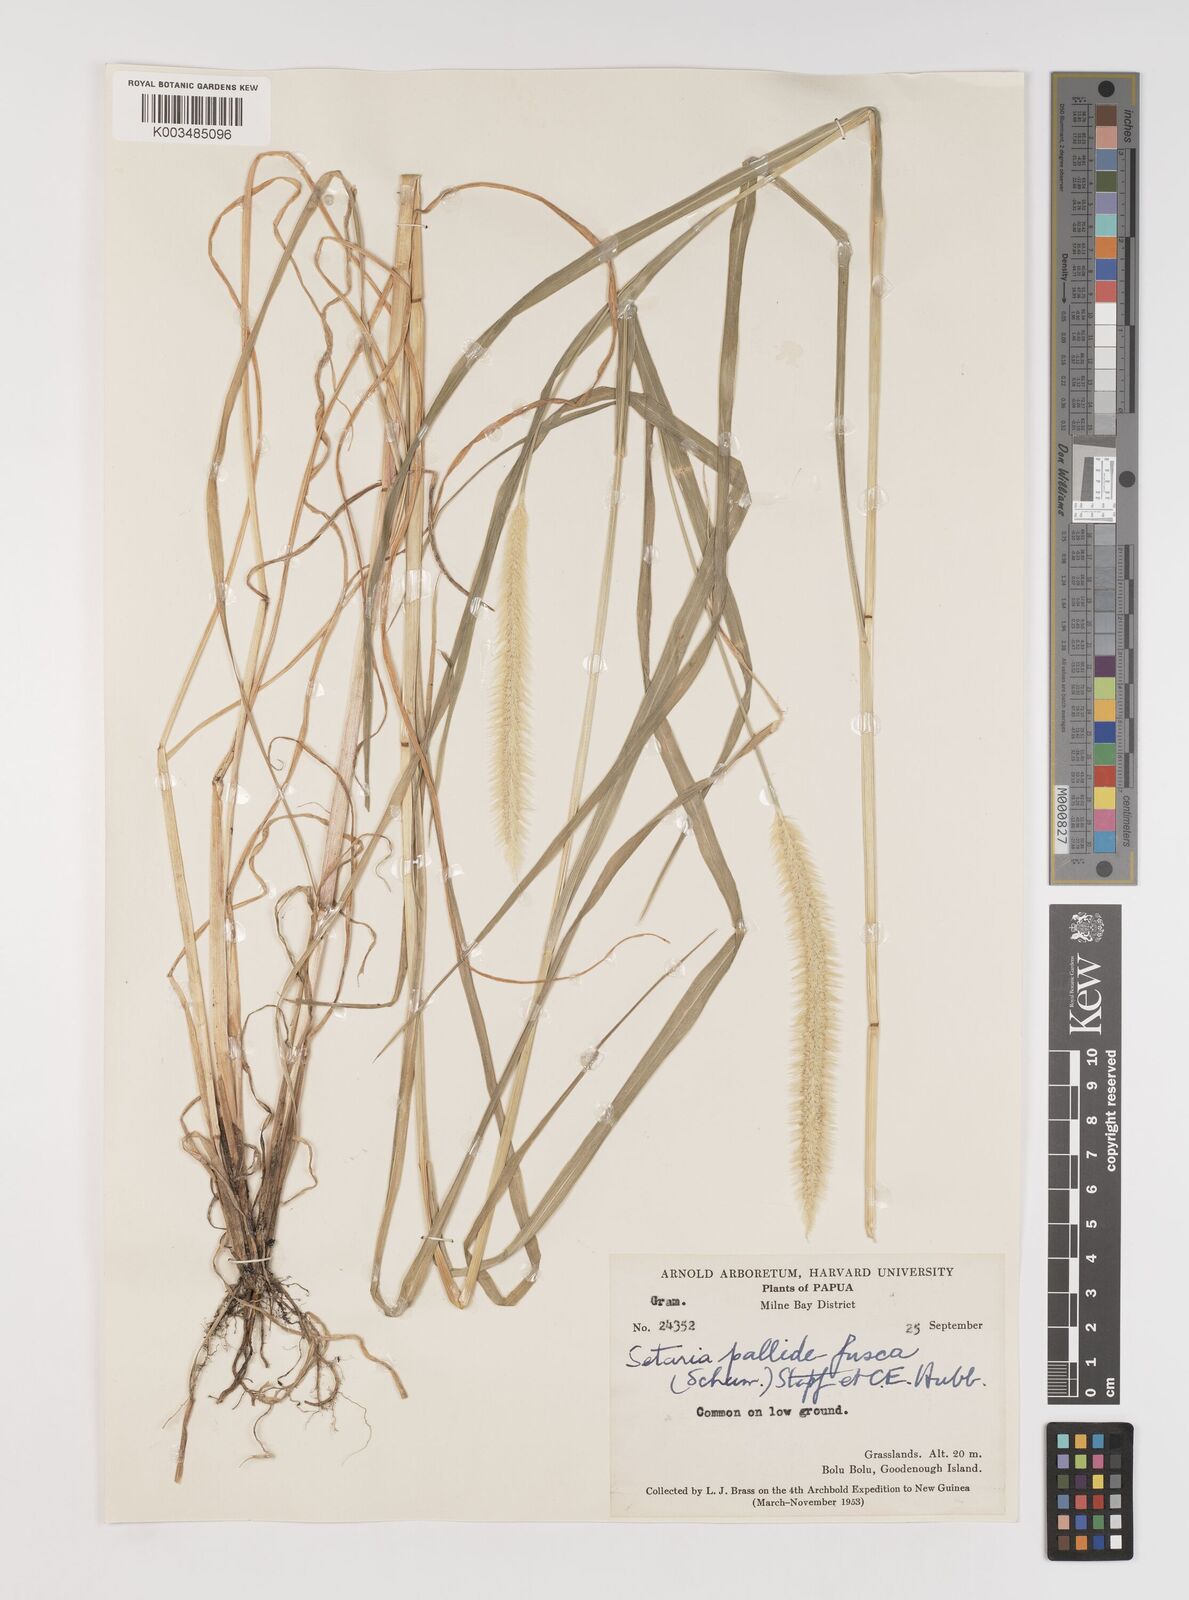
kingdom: Plantae
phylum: Tracheophyta
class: Liliopsida
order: Poales
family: Poaceae
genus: Setaria
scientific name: Setaria pumila
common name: Yellow bristle-grass
